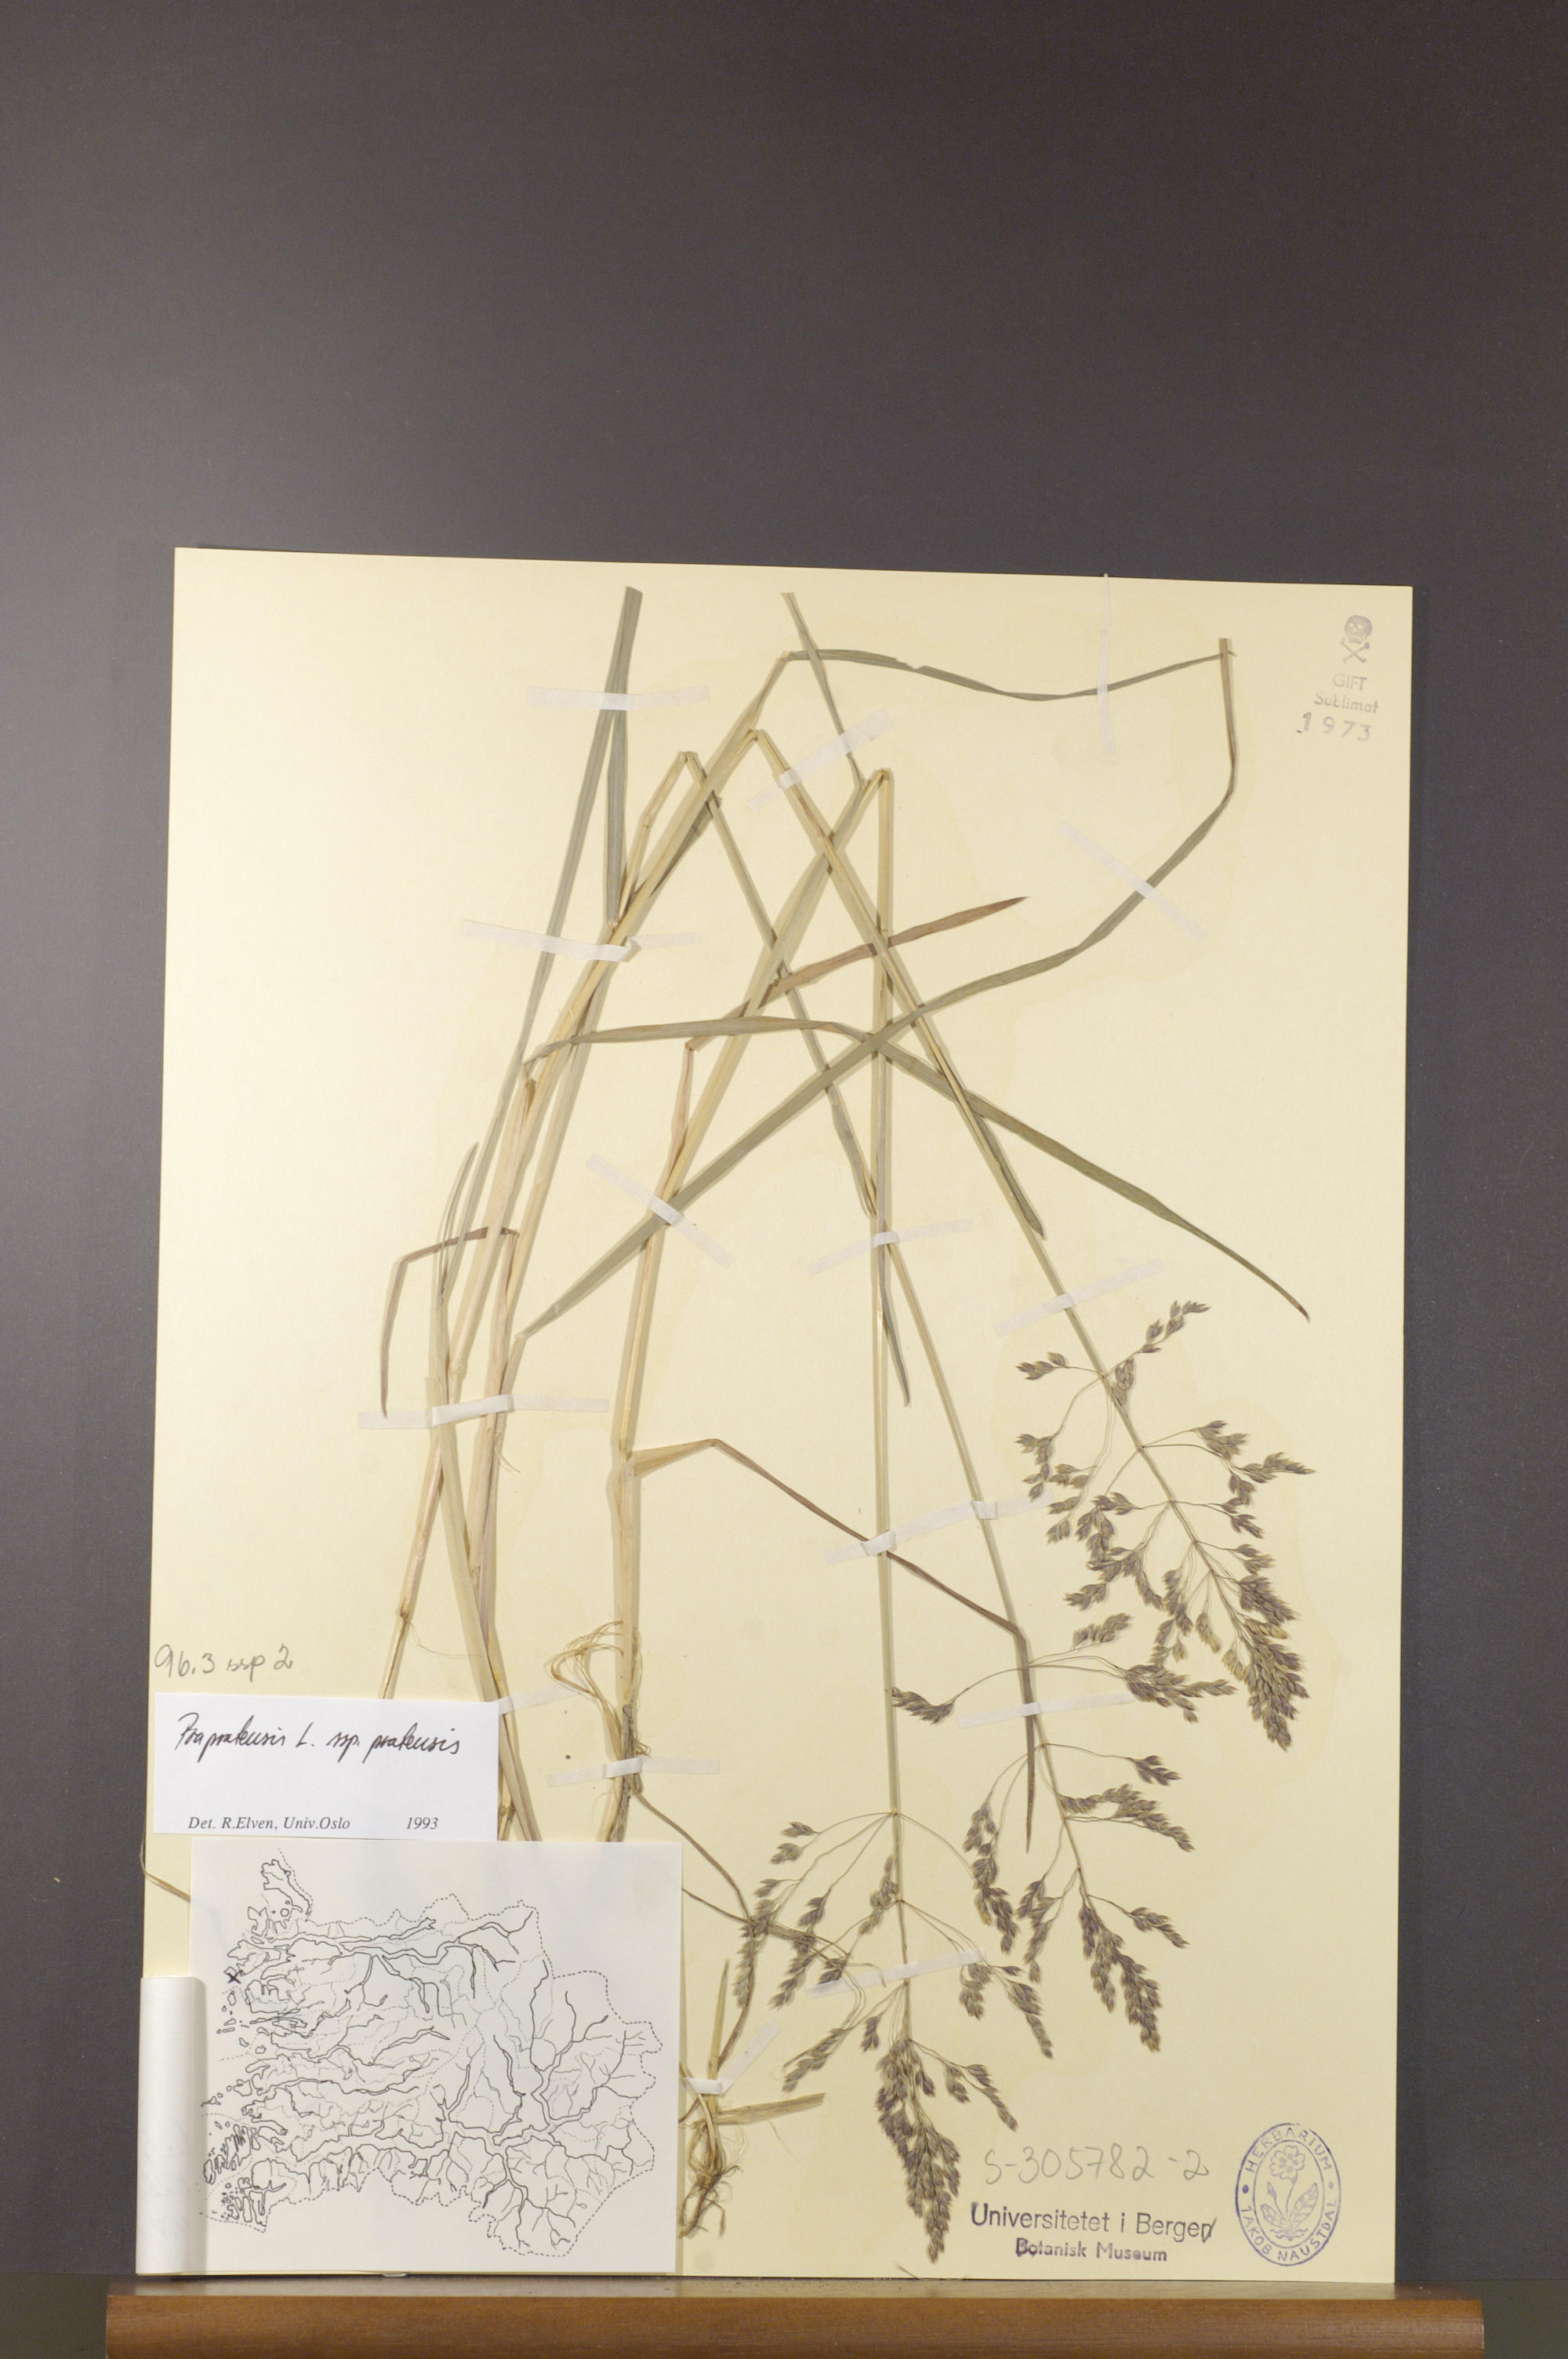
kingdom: Plantae
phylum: Tracheophyta
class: Liliopsida
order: Poales
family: Poaceae
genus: Poa
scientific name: Poa pratensis
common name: Kentucky bluegrass
